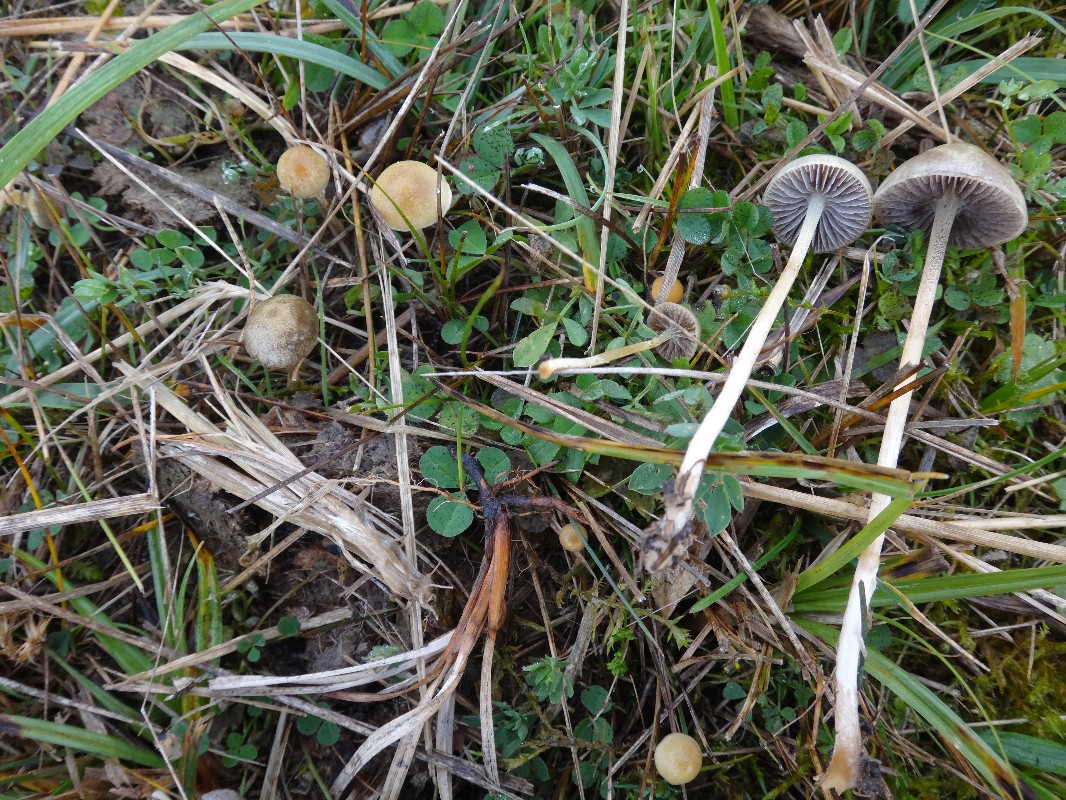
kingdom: Fungi
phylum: Basidiomycota
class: Agaricomycetes
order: Agaricales
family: Strophariaceae
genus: Protostropharia
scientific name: Protostropharia semiglobata
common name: halvkugleformet bredblad
